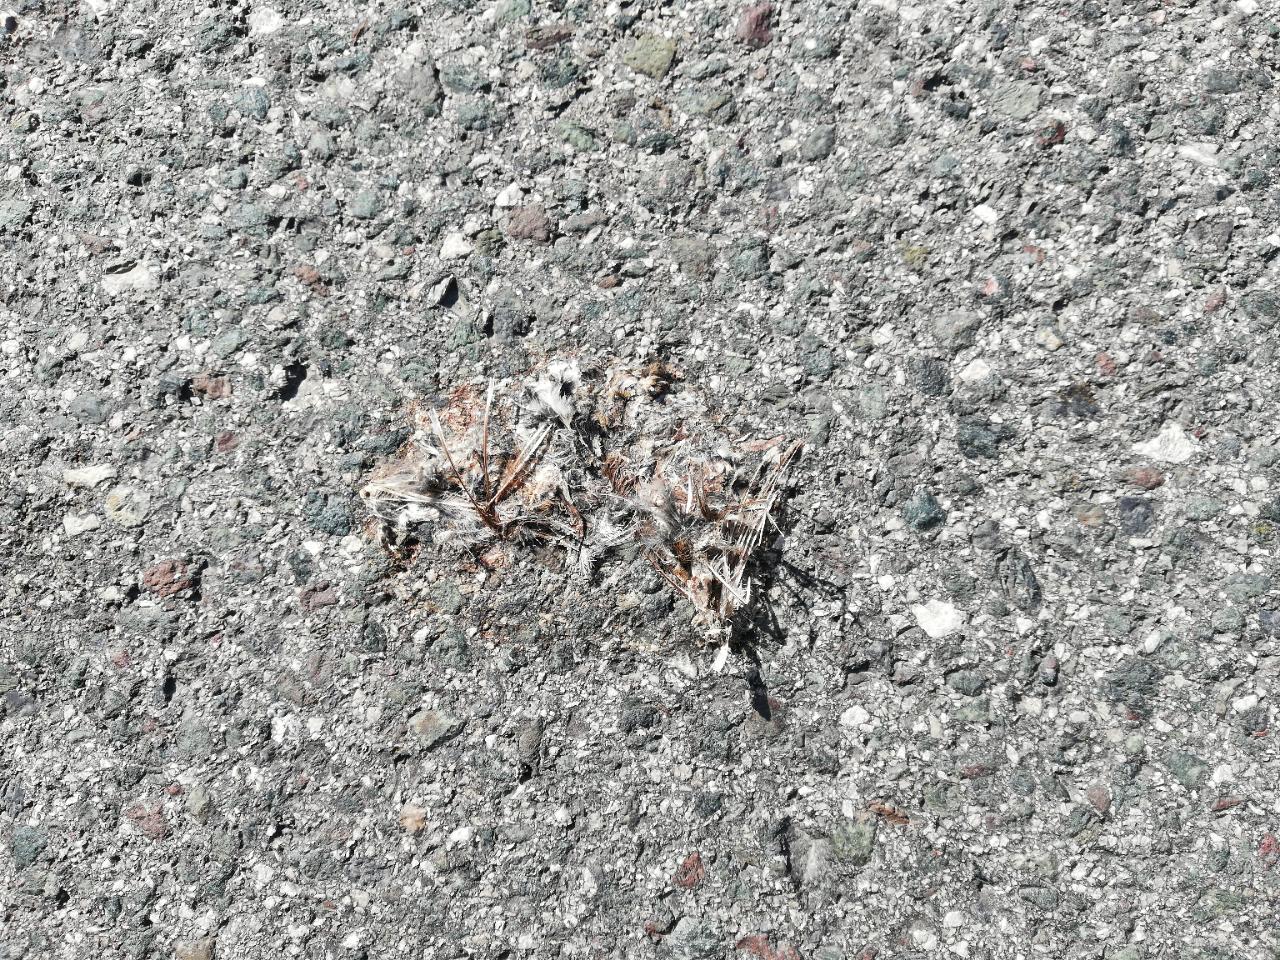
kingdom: Animalia
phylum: Chordata
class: Aves
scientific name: Aves
